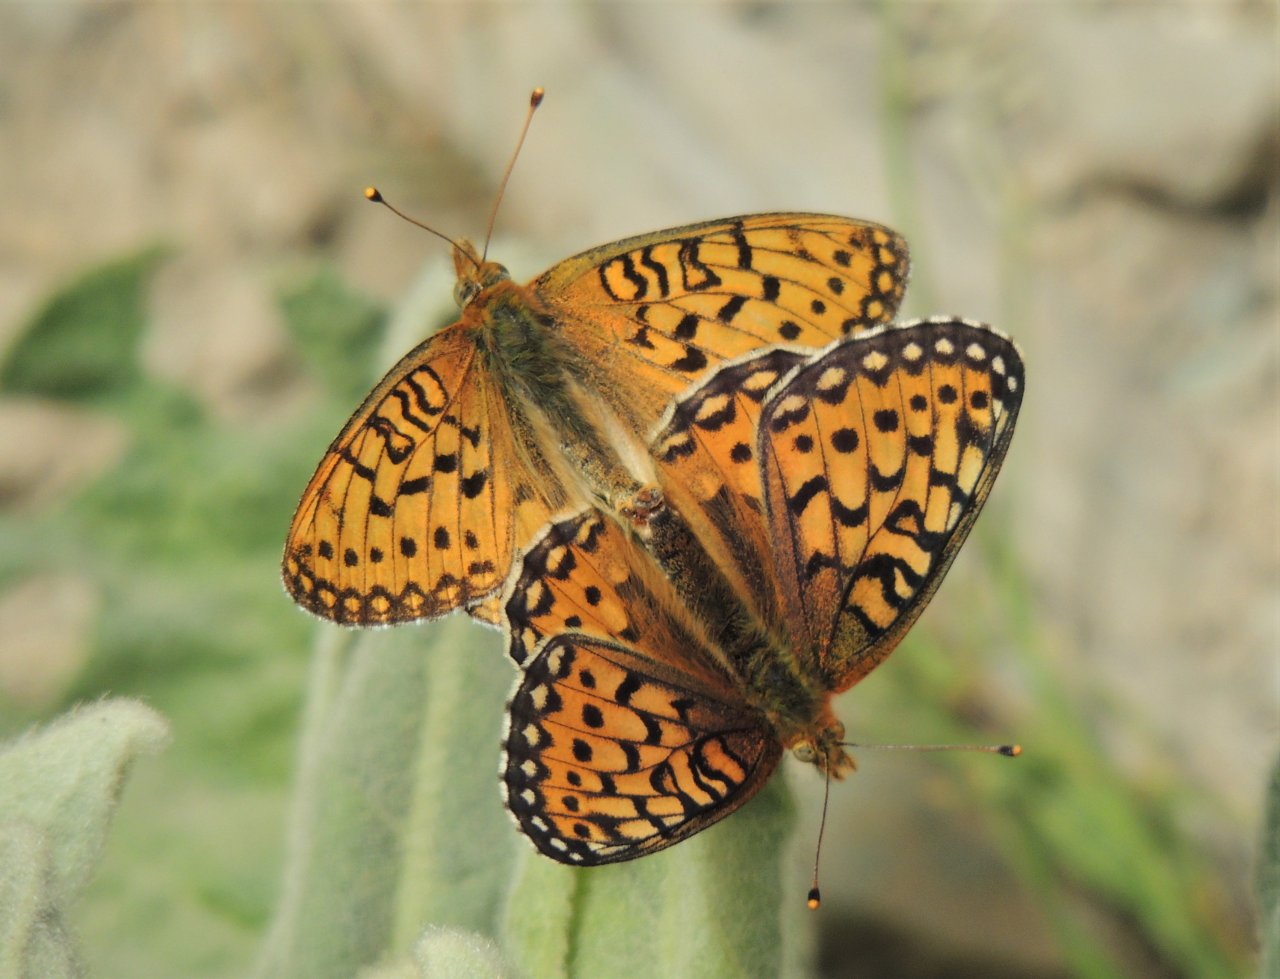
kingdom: Animalia
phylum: Arthropoda
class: Insecta
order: Lepidoptera
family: Nymphalidae
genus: Speyeria
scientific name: Speyeria mormonia
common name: Mormon Fritillary
